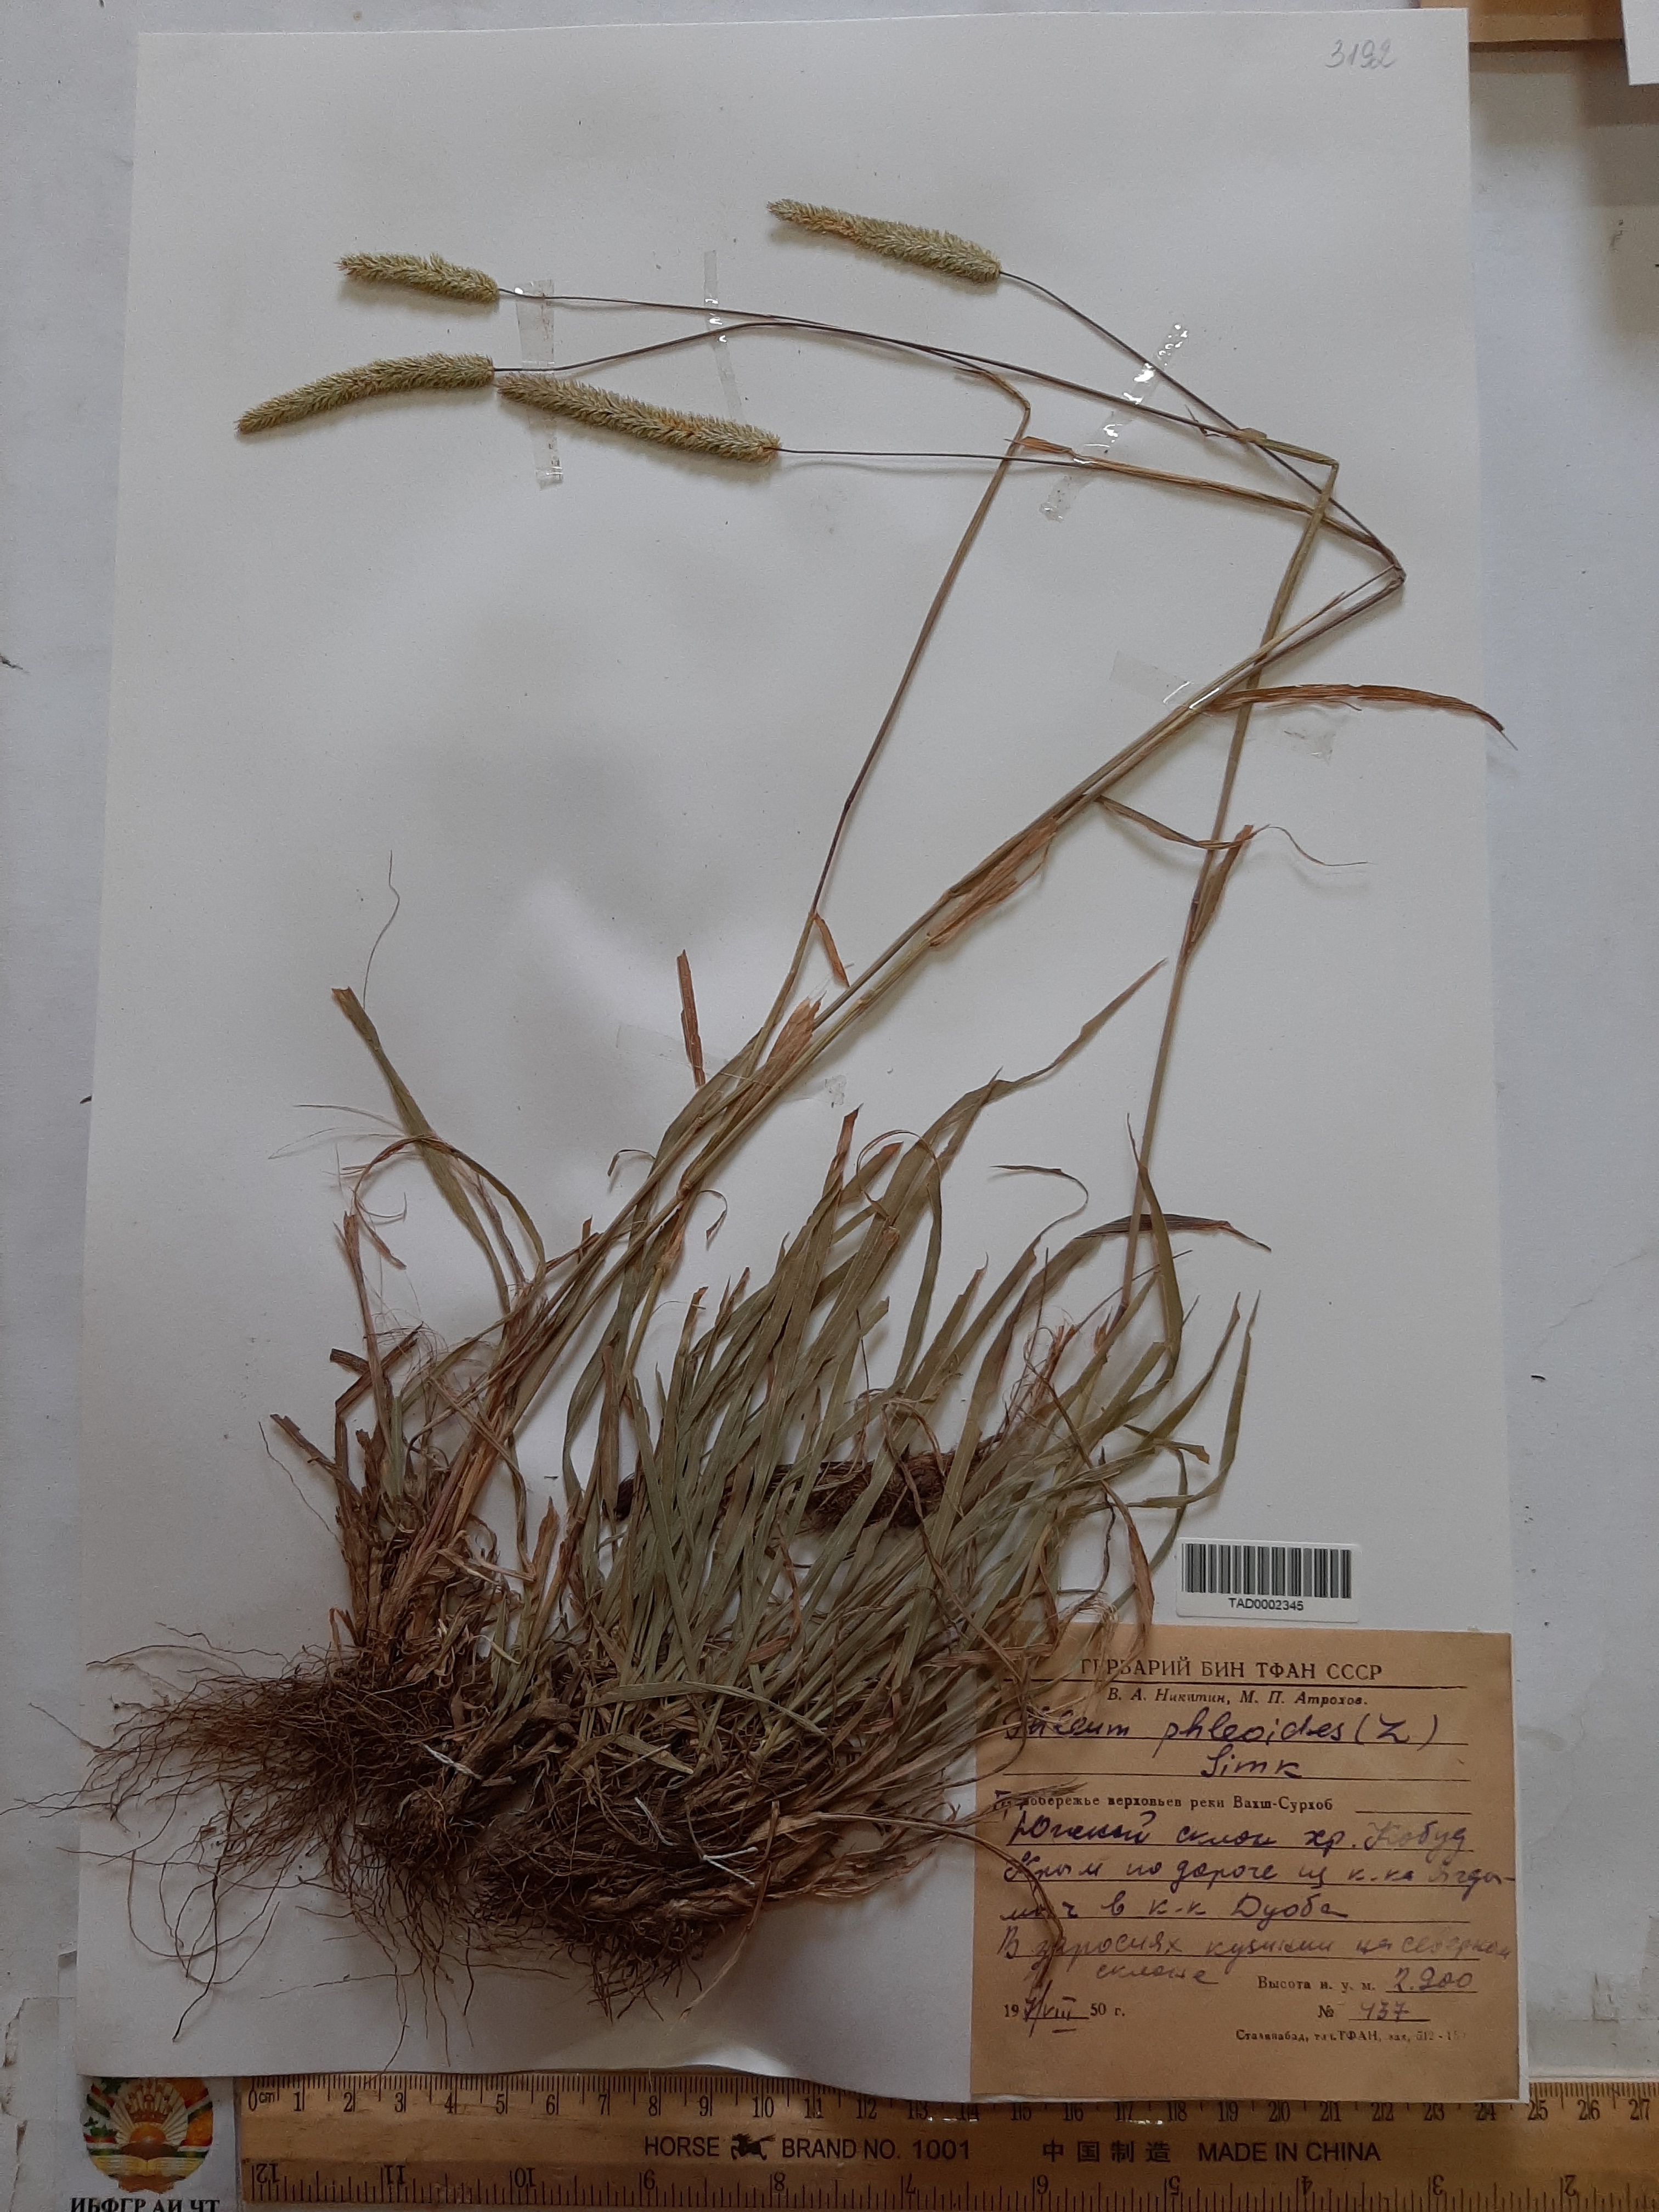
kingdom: Plantae
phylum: Tracheophyta
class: Liliopsida
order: Poales
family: Poaceae
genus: Phleum
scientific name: Phleum phleoides
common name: Purple-stem cat's-tail
